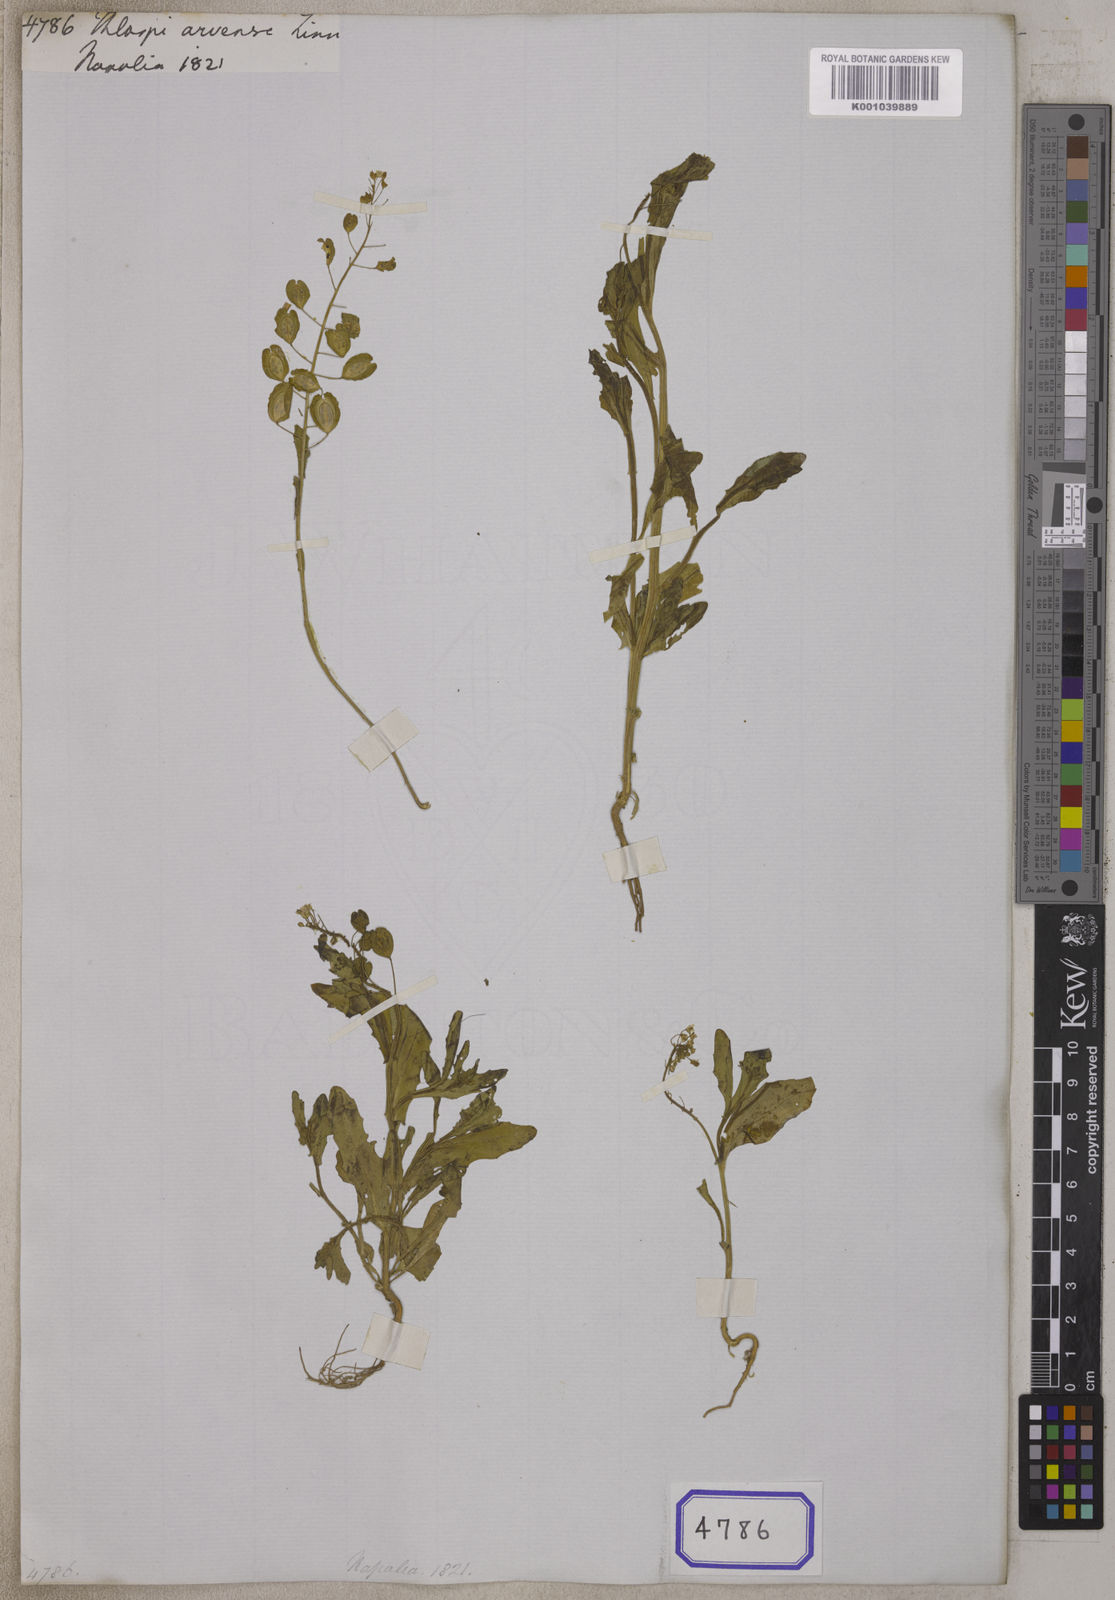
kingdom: Plantae
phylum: Tracheophyta
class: Magnoliopsida
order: Brassicales
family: Brassicaceae
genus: Thlaspi
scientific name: Thlaspi arvense
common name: Field pennycress
